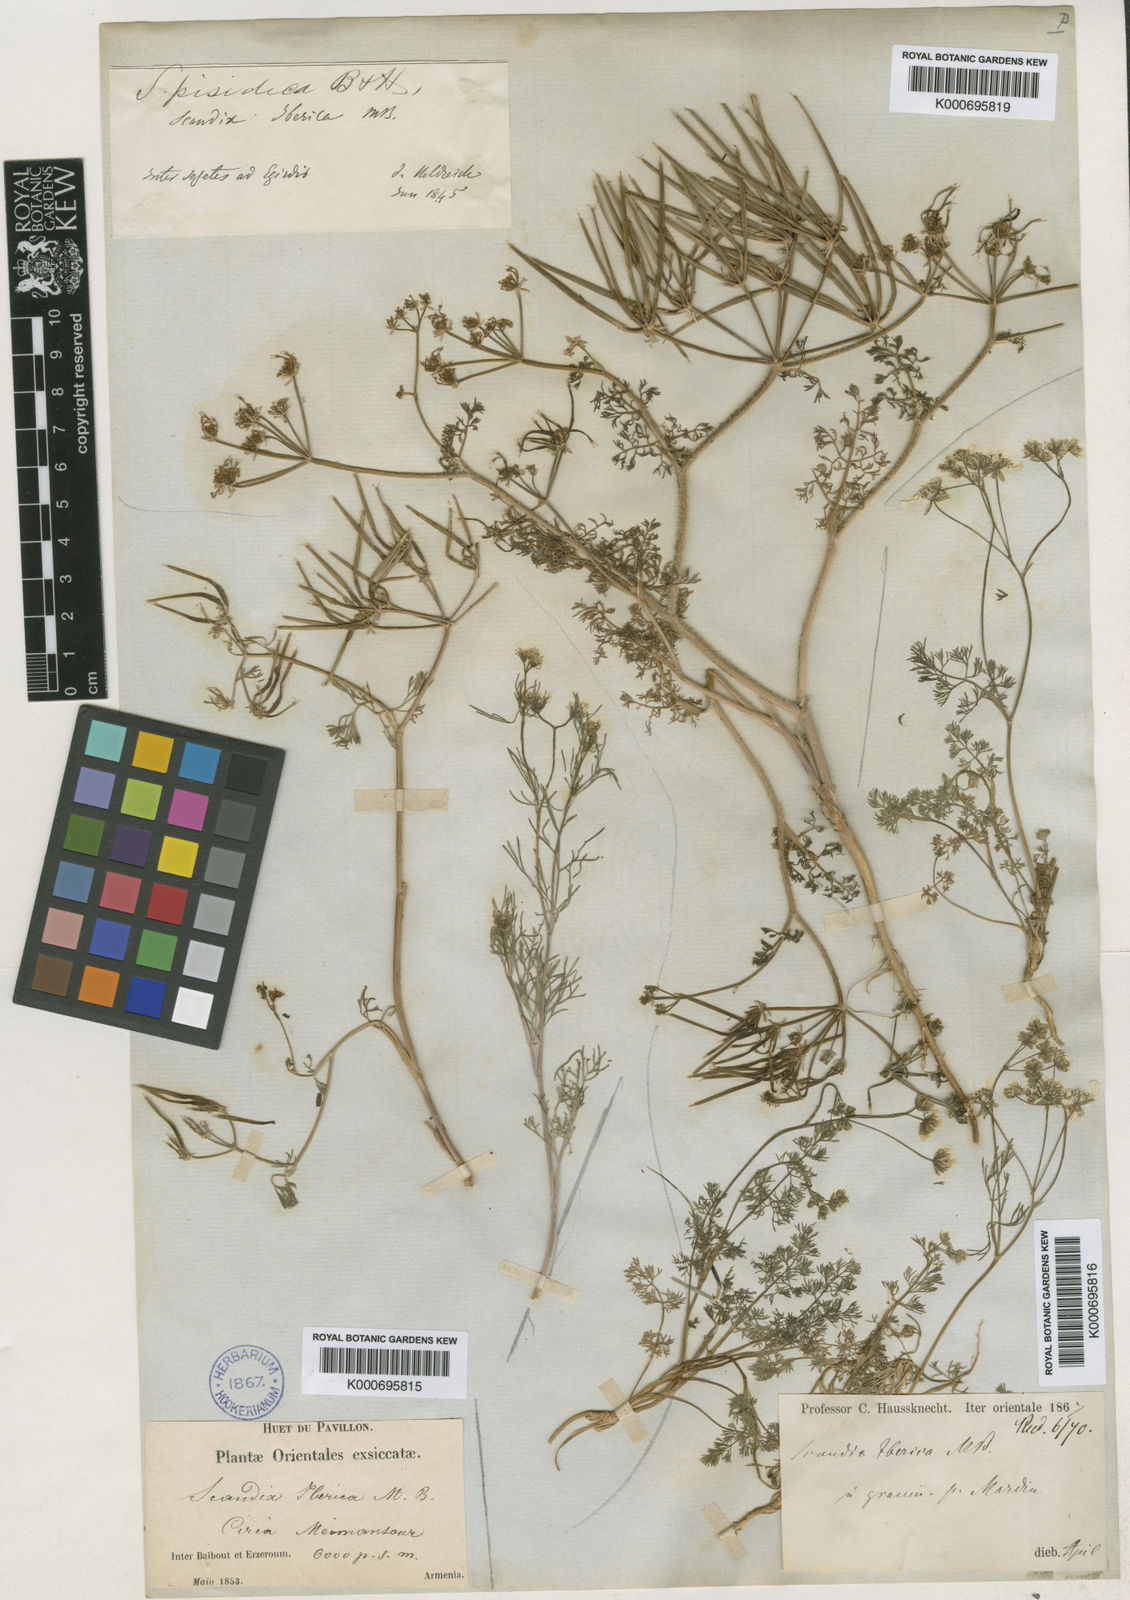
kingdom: Plantae
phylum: Tracheophyta
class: Magnoliopsida
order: Apiales
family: Apiaceae
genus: Scandix
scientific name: Scandix iberica
